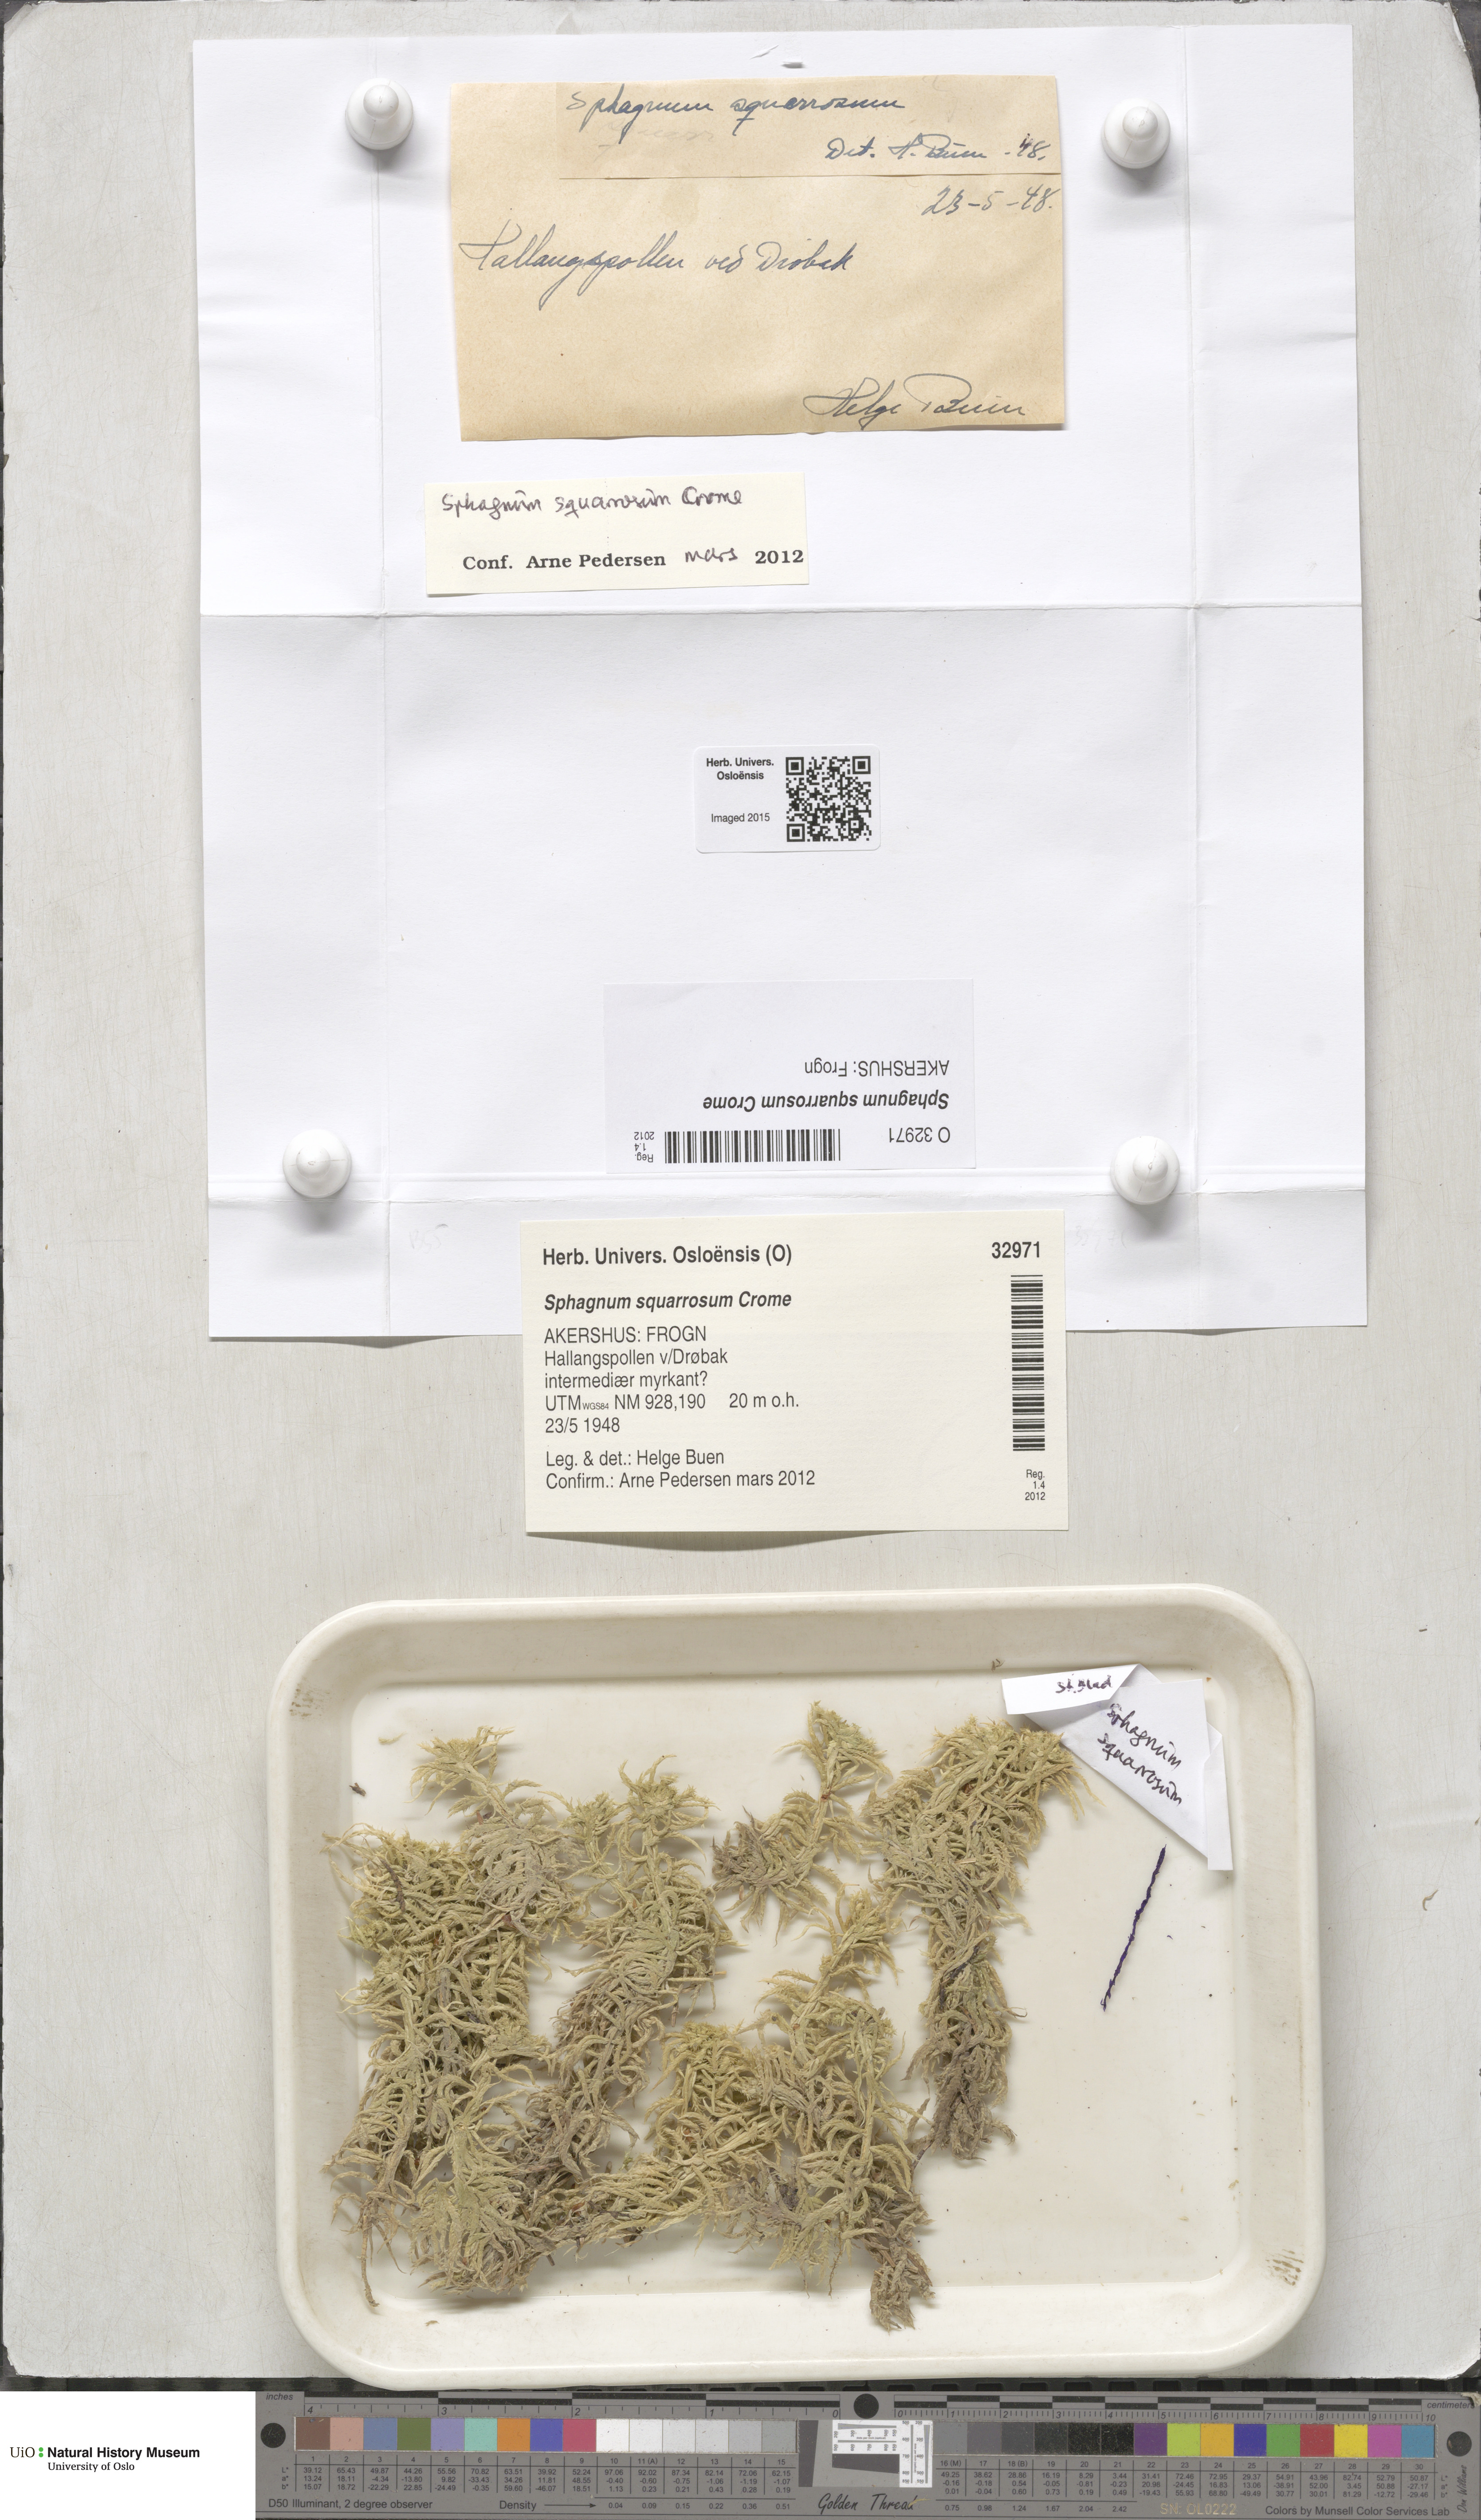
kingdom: Plantae
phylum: Bryophyta
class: Sphagnopsida
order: Sphagnales
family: Sphagnaceae
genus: Sphagnum
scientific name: Sphagnum squarrosum
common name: Shaggy peat moss
